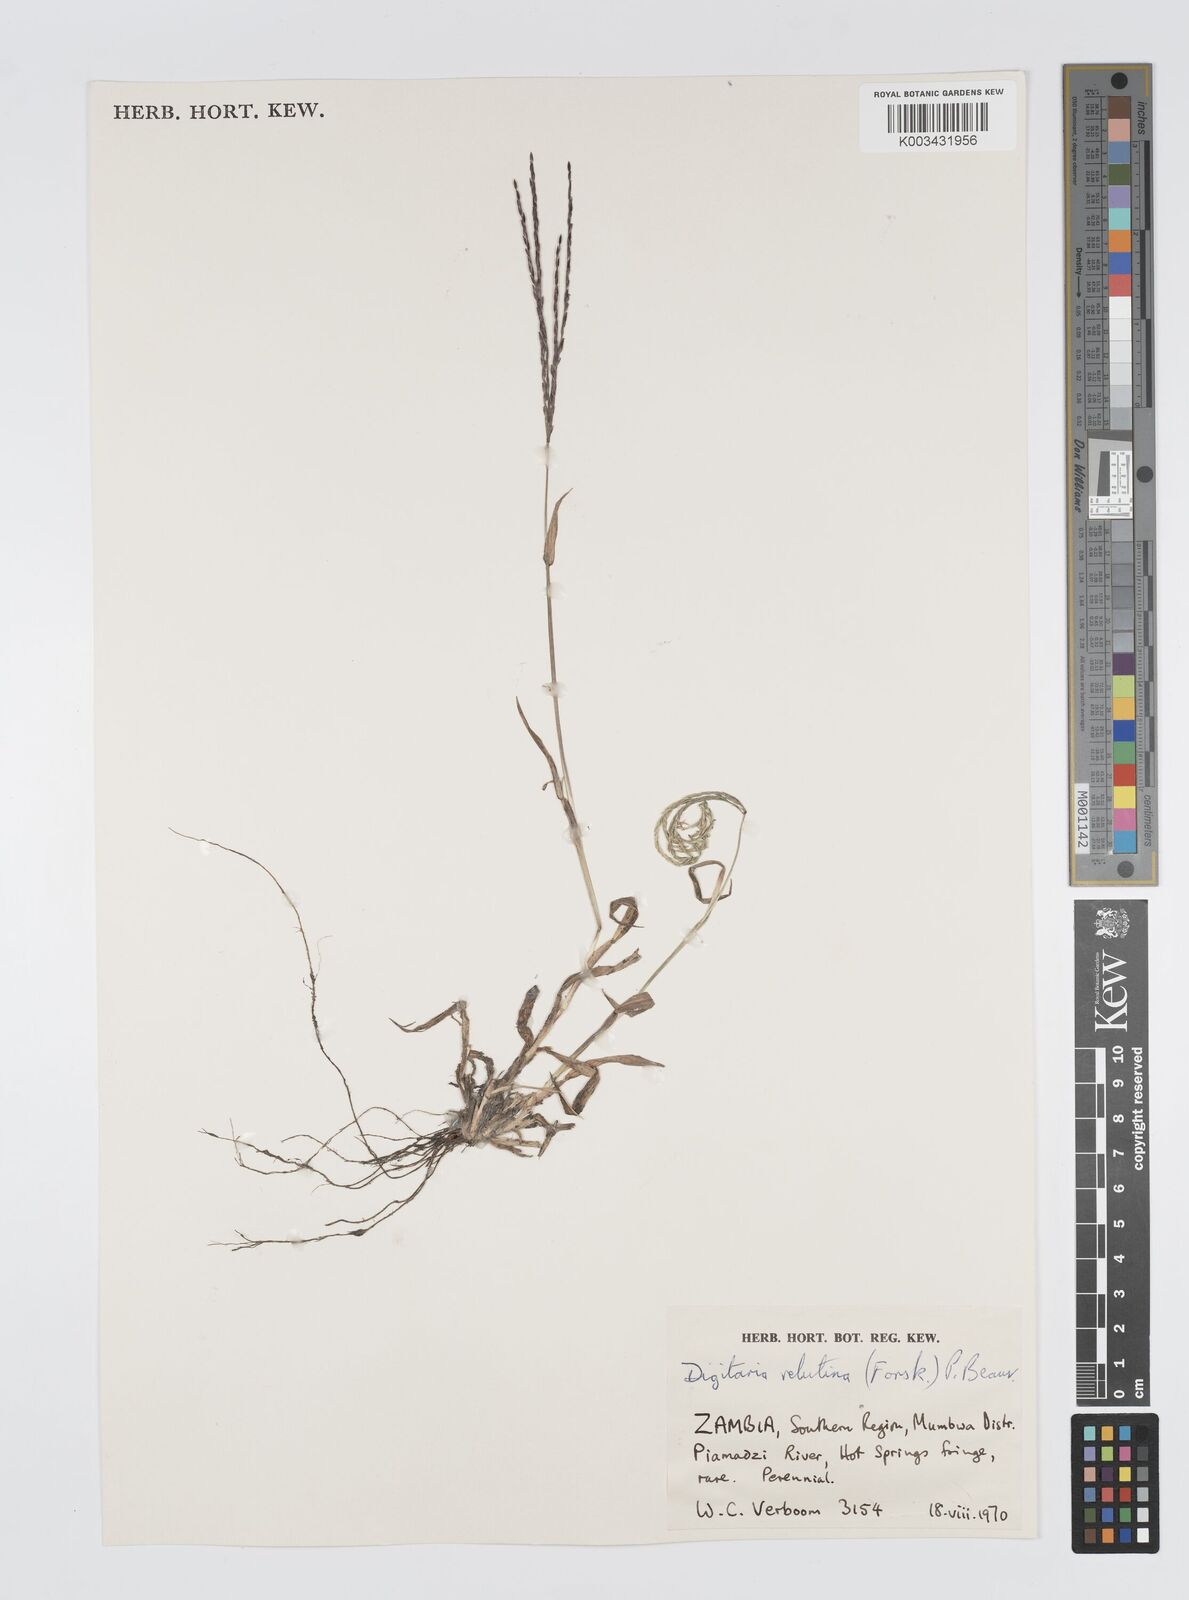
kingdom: Plantae
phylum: Tracheophyta
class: Liliopsida
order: Poales
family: Poaceae
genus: Digitaria
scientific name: Digitaria milanjiana
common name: Madagascar crabgrass
